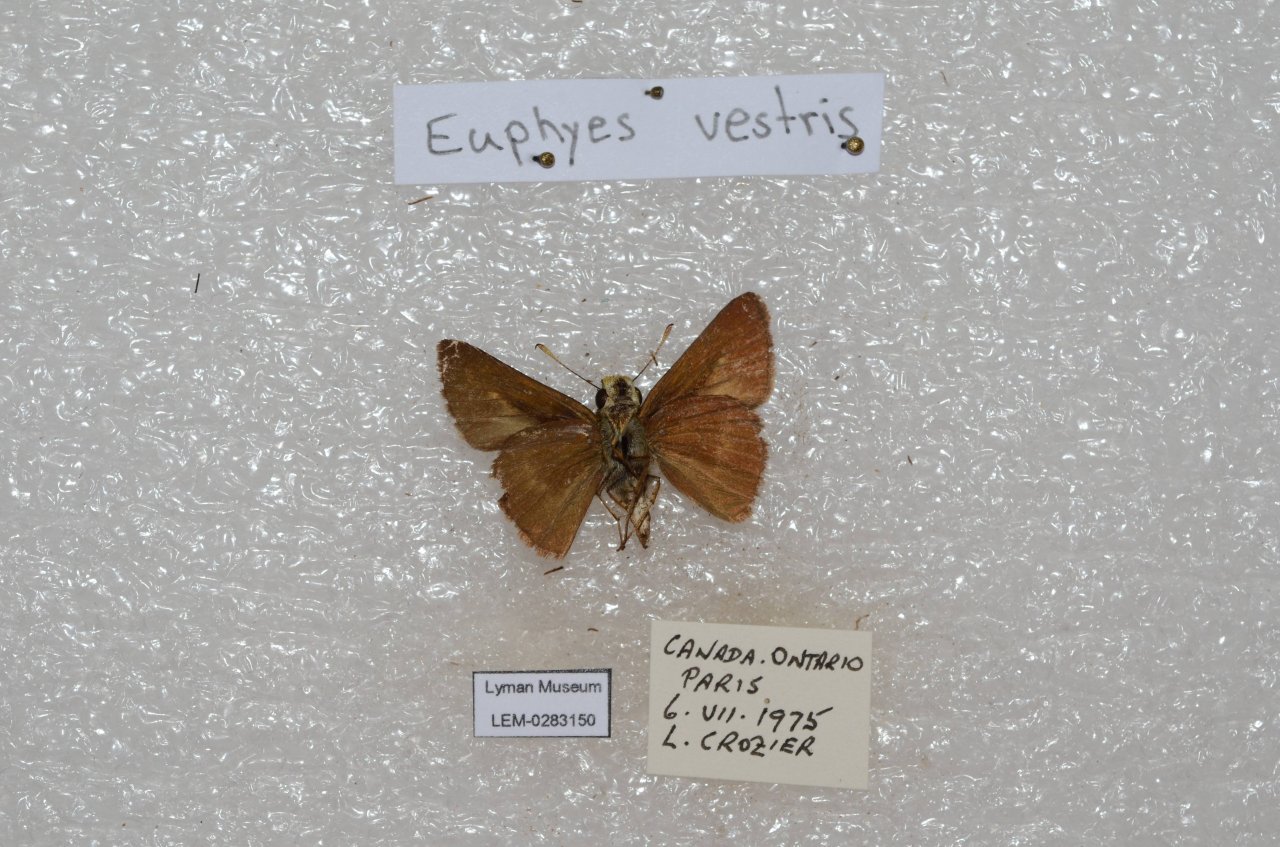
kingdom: Animalia
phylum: Arthropoda
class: Insecta
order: Lepidoptera
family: Hesperiidae
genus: Euphyes
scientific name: Euphyes vestris
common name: Dun Skipper
